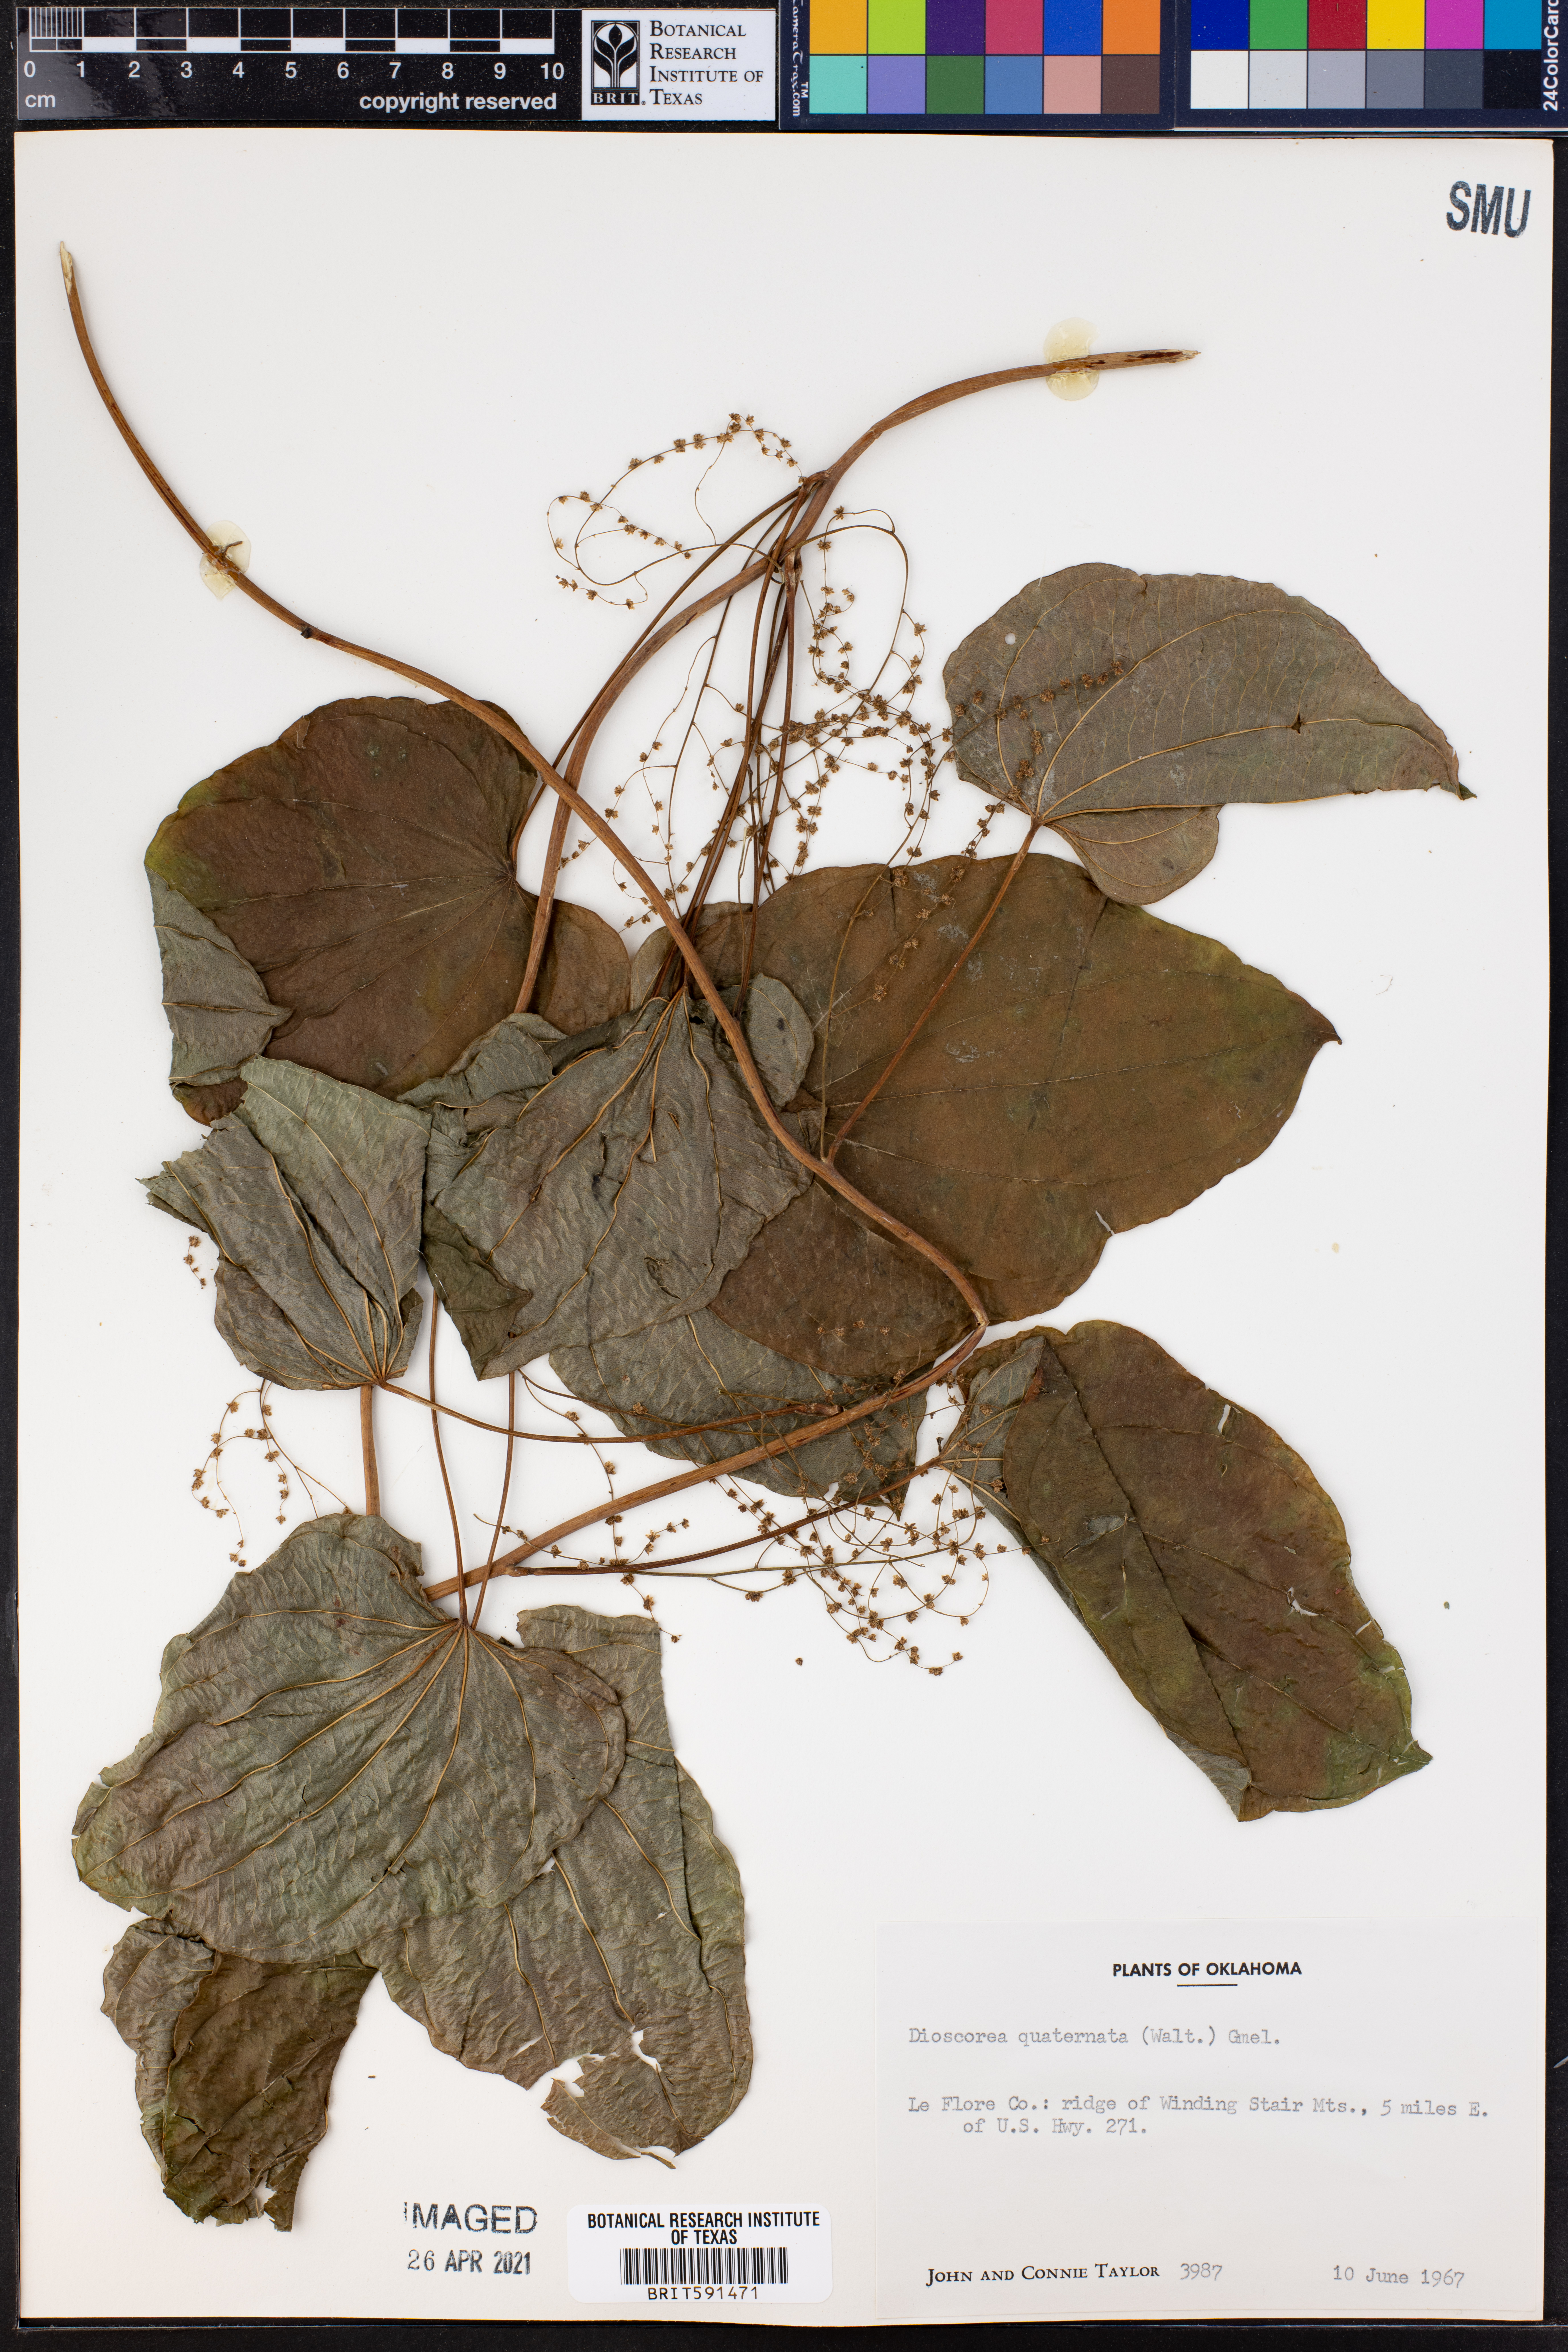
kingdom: Plantae
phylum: Tracheophyta
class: Liliopsida
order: Dioscoreales
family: Dioscoreaceae
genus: Dioscorea
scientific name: Dioscorea quaternata
